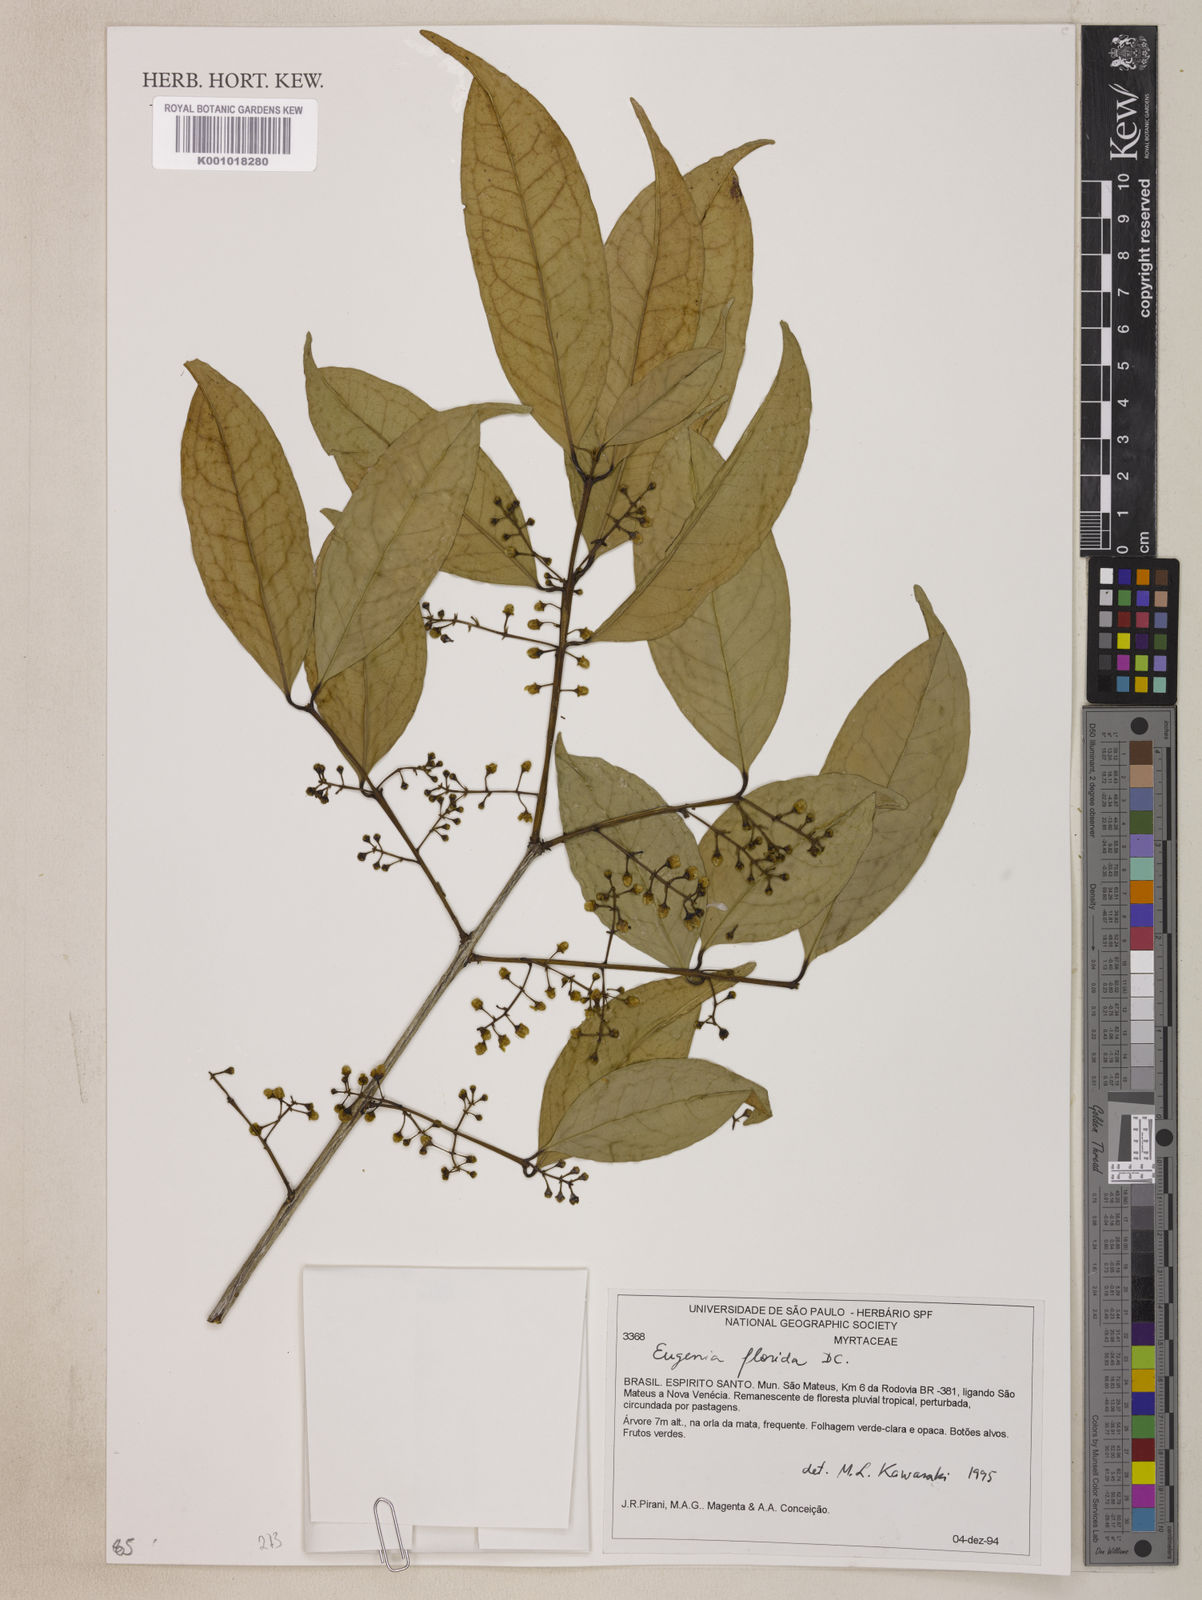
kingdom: Plantae
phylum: Tracheophyta
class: Magnoliopsida
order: Myrtales
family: Myrtaceae
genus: Eugenia
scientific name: Eugenia florida
